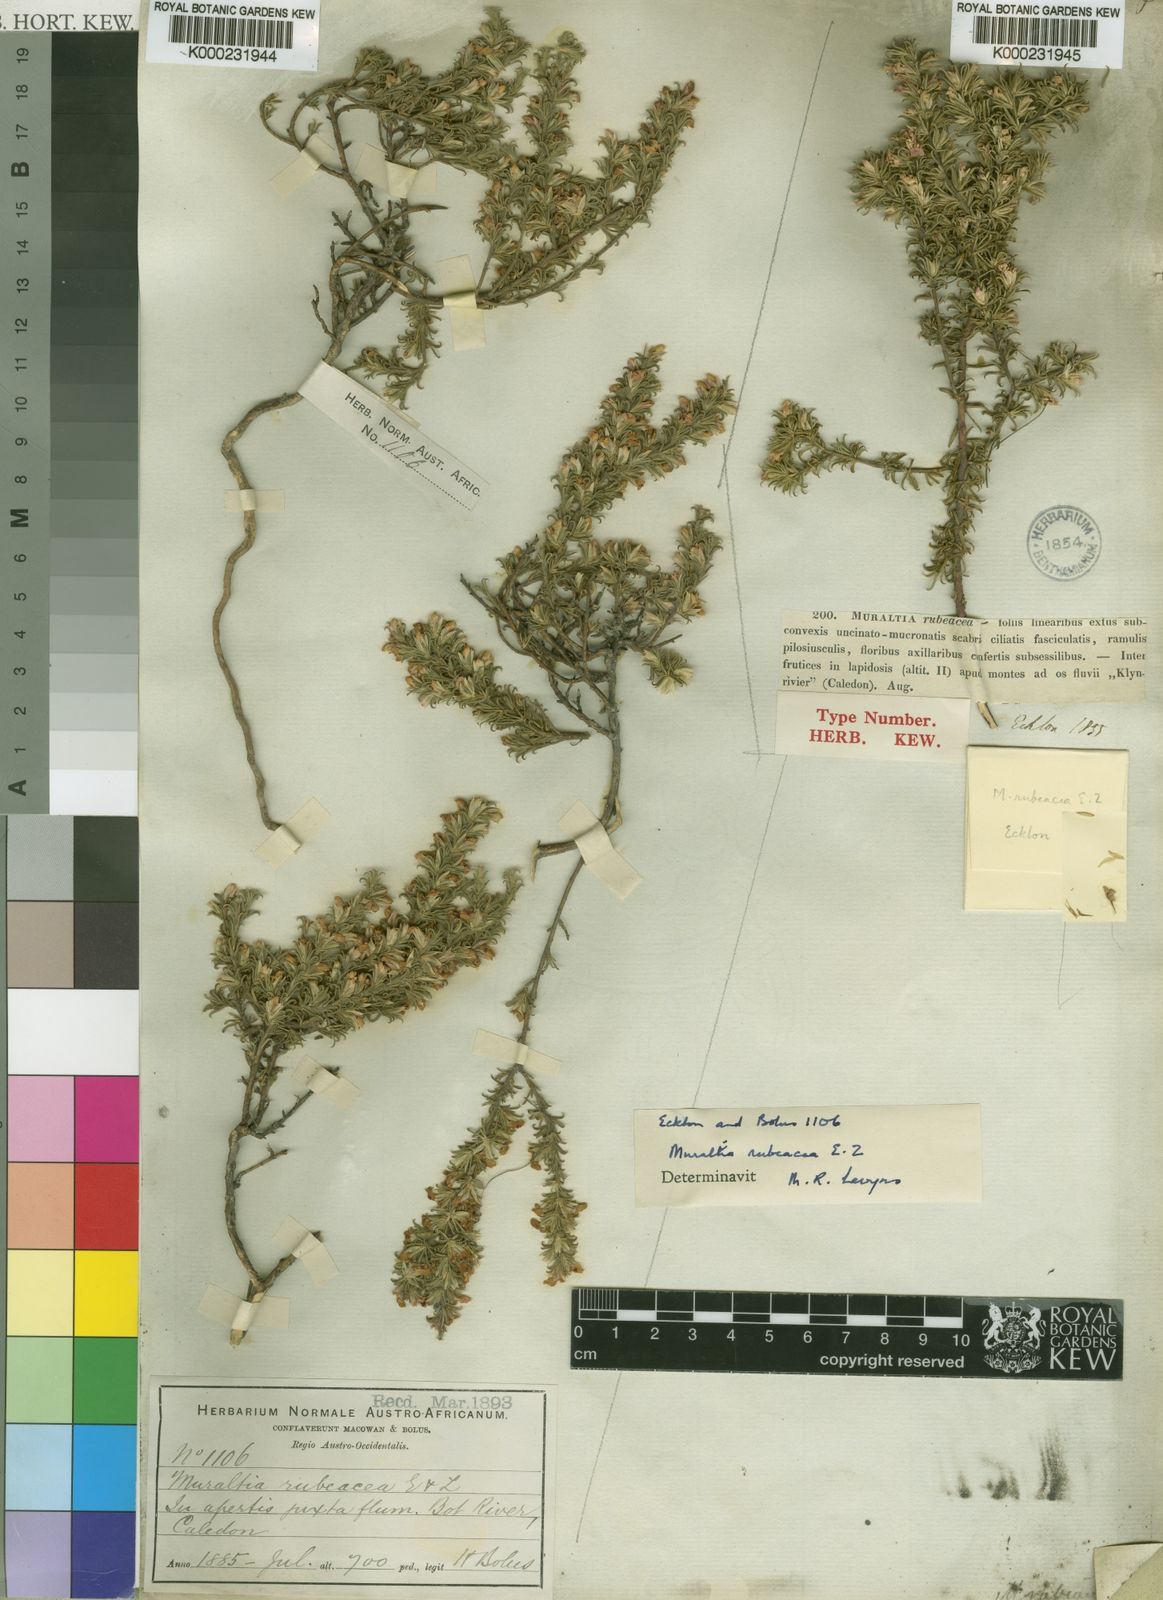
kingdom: Plantae
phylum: Tracheophyta
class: Magnoliopsida
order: Fabales
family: Polygalaceae
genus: Muraltia
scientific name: Muraltia rubeacea
